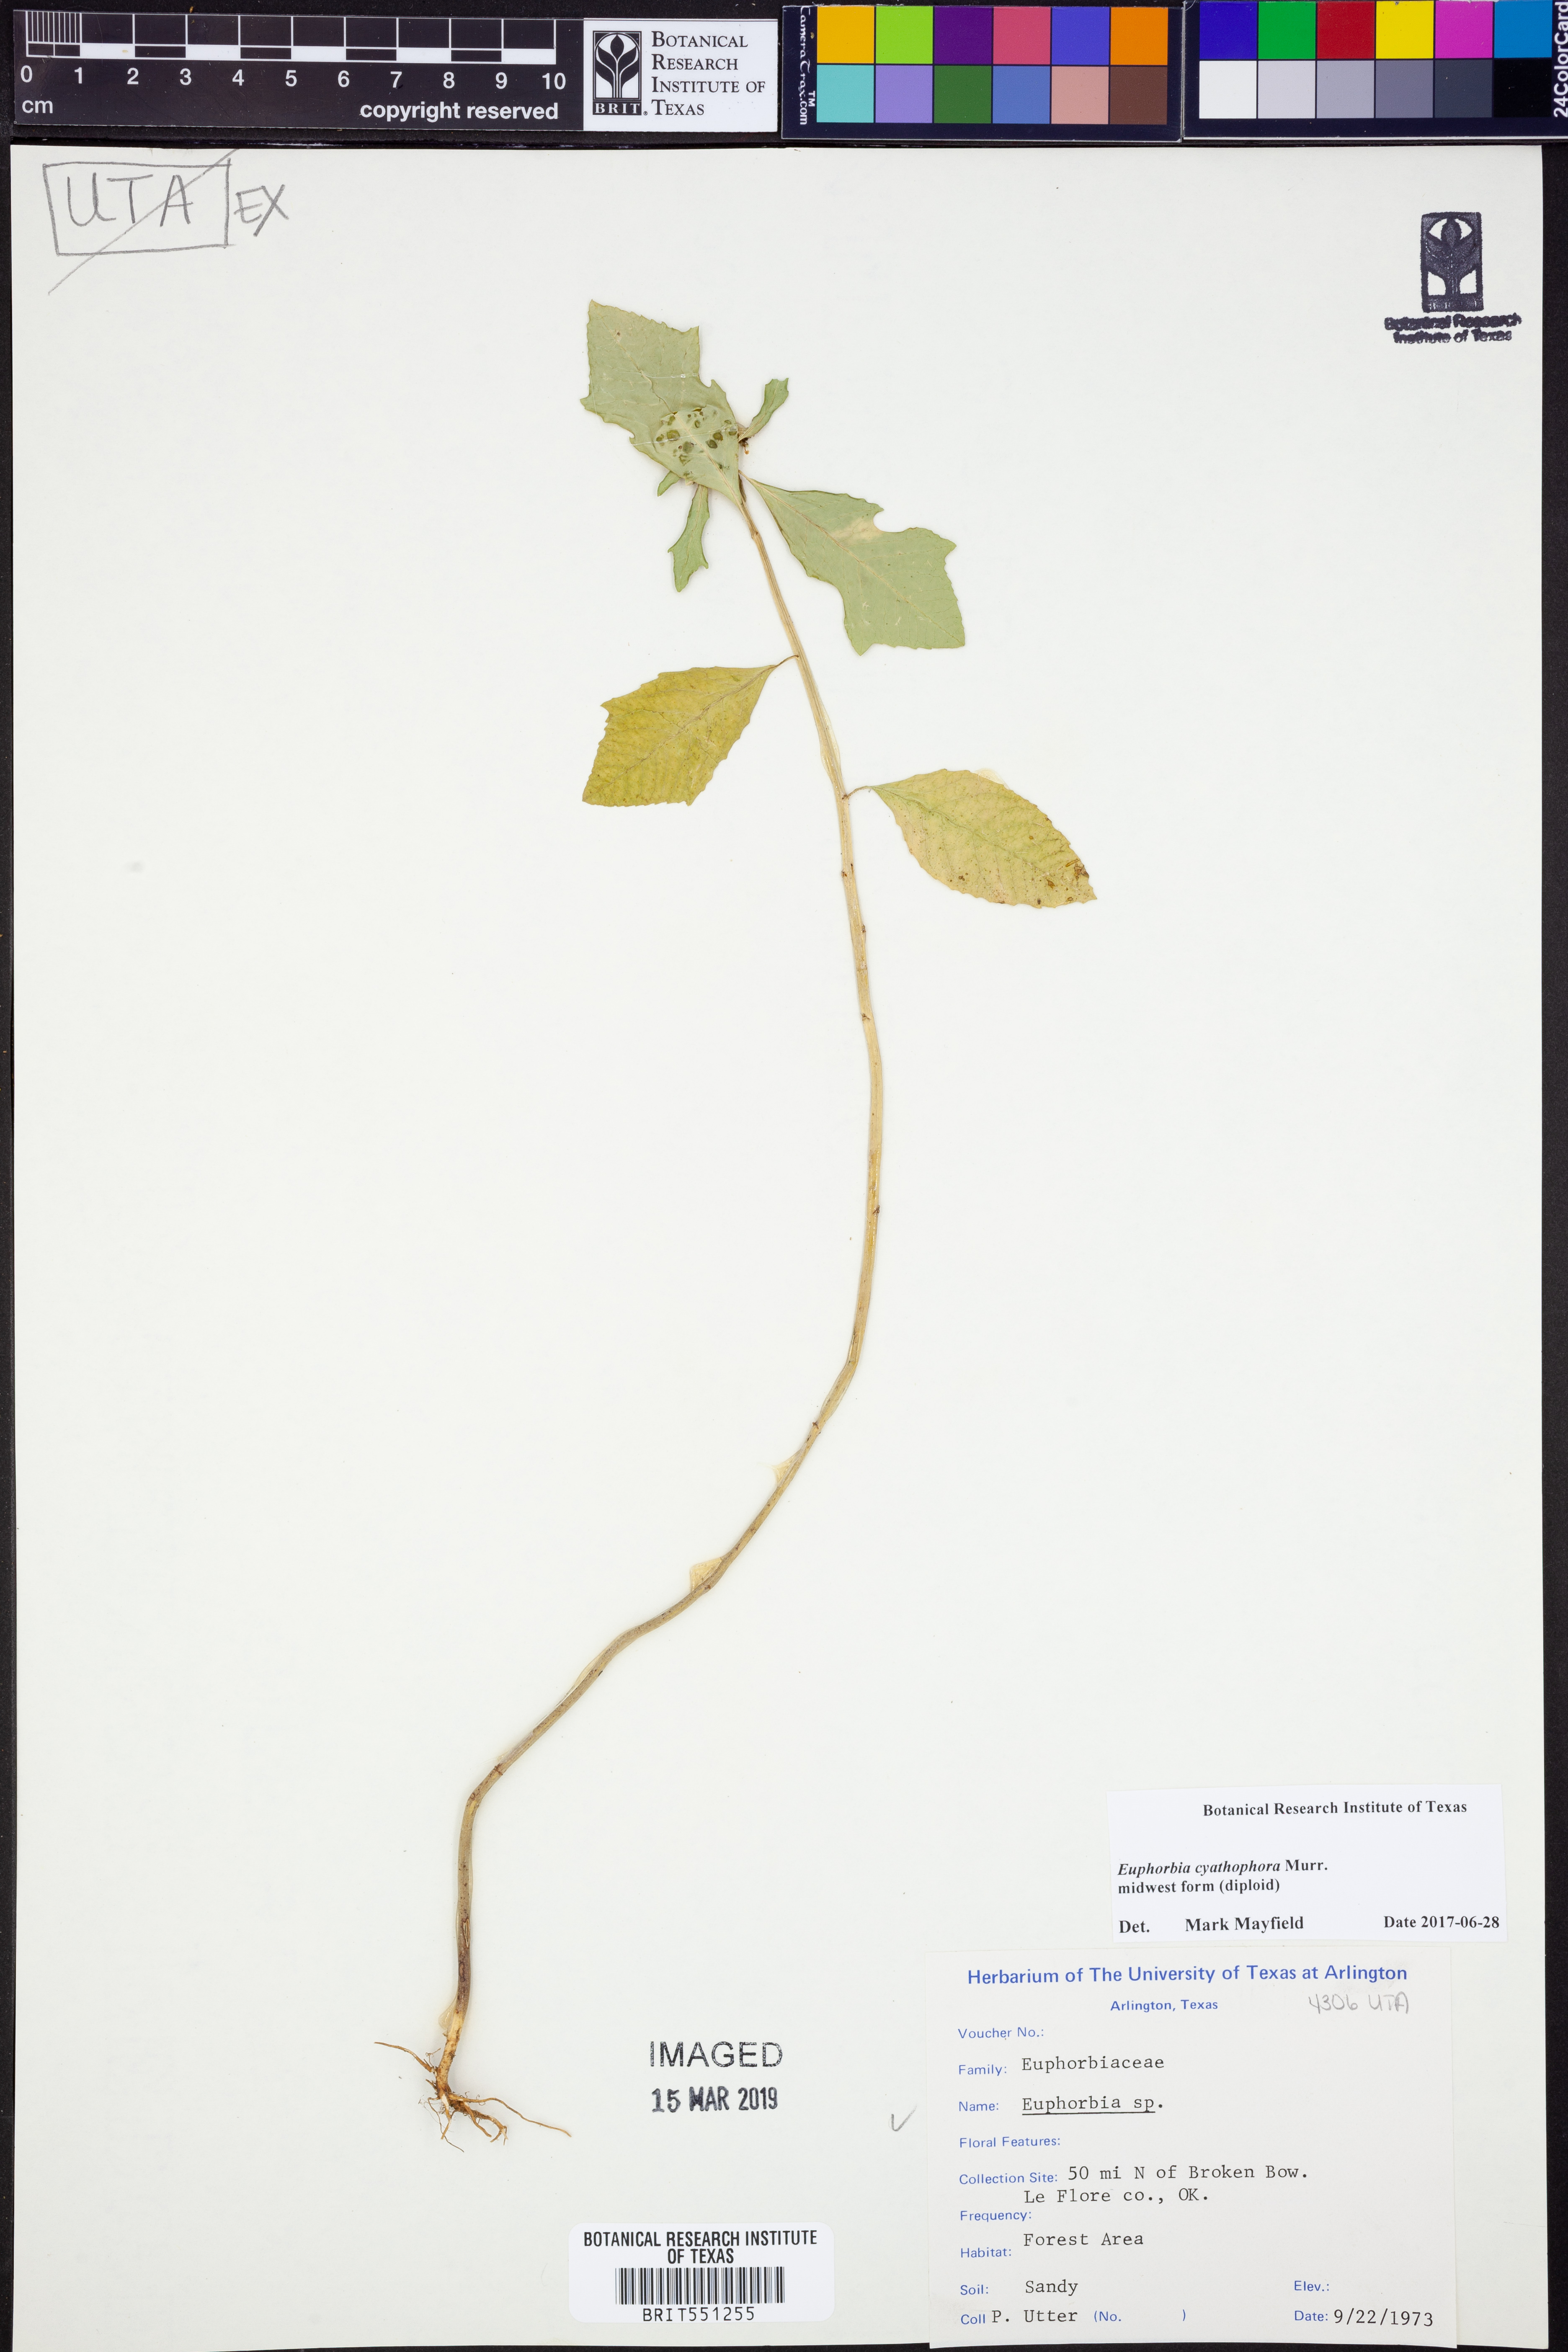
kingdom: Plantae
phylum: Tracheophyta
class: Magnoliopsida
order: Malpighiales
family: Euphorbiaceae
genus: Euphorbia
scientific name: Euphorbia heterophylla
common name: Mexican fireplant
